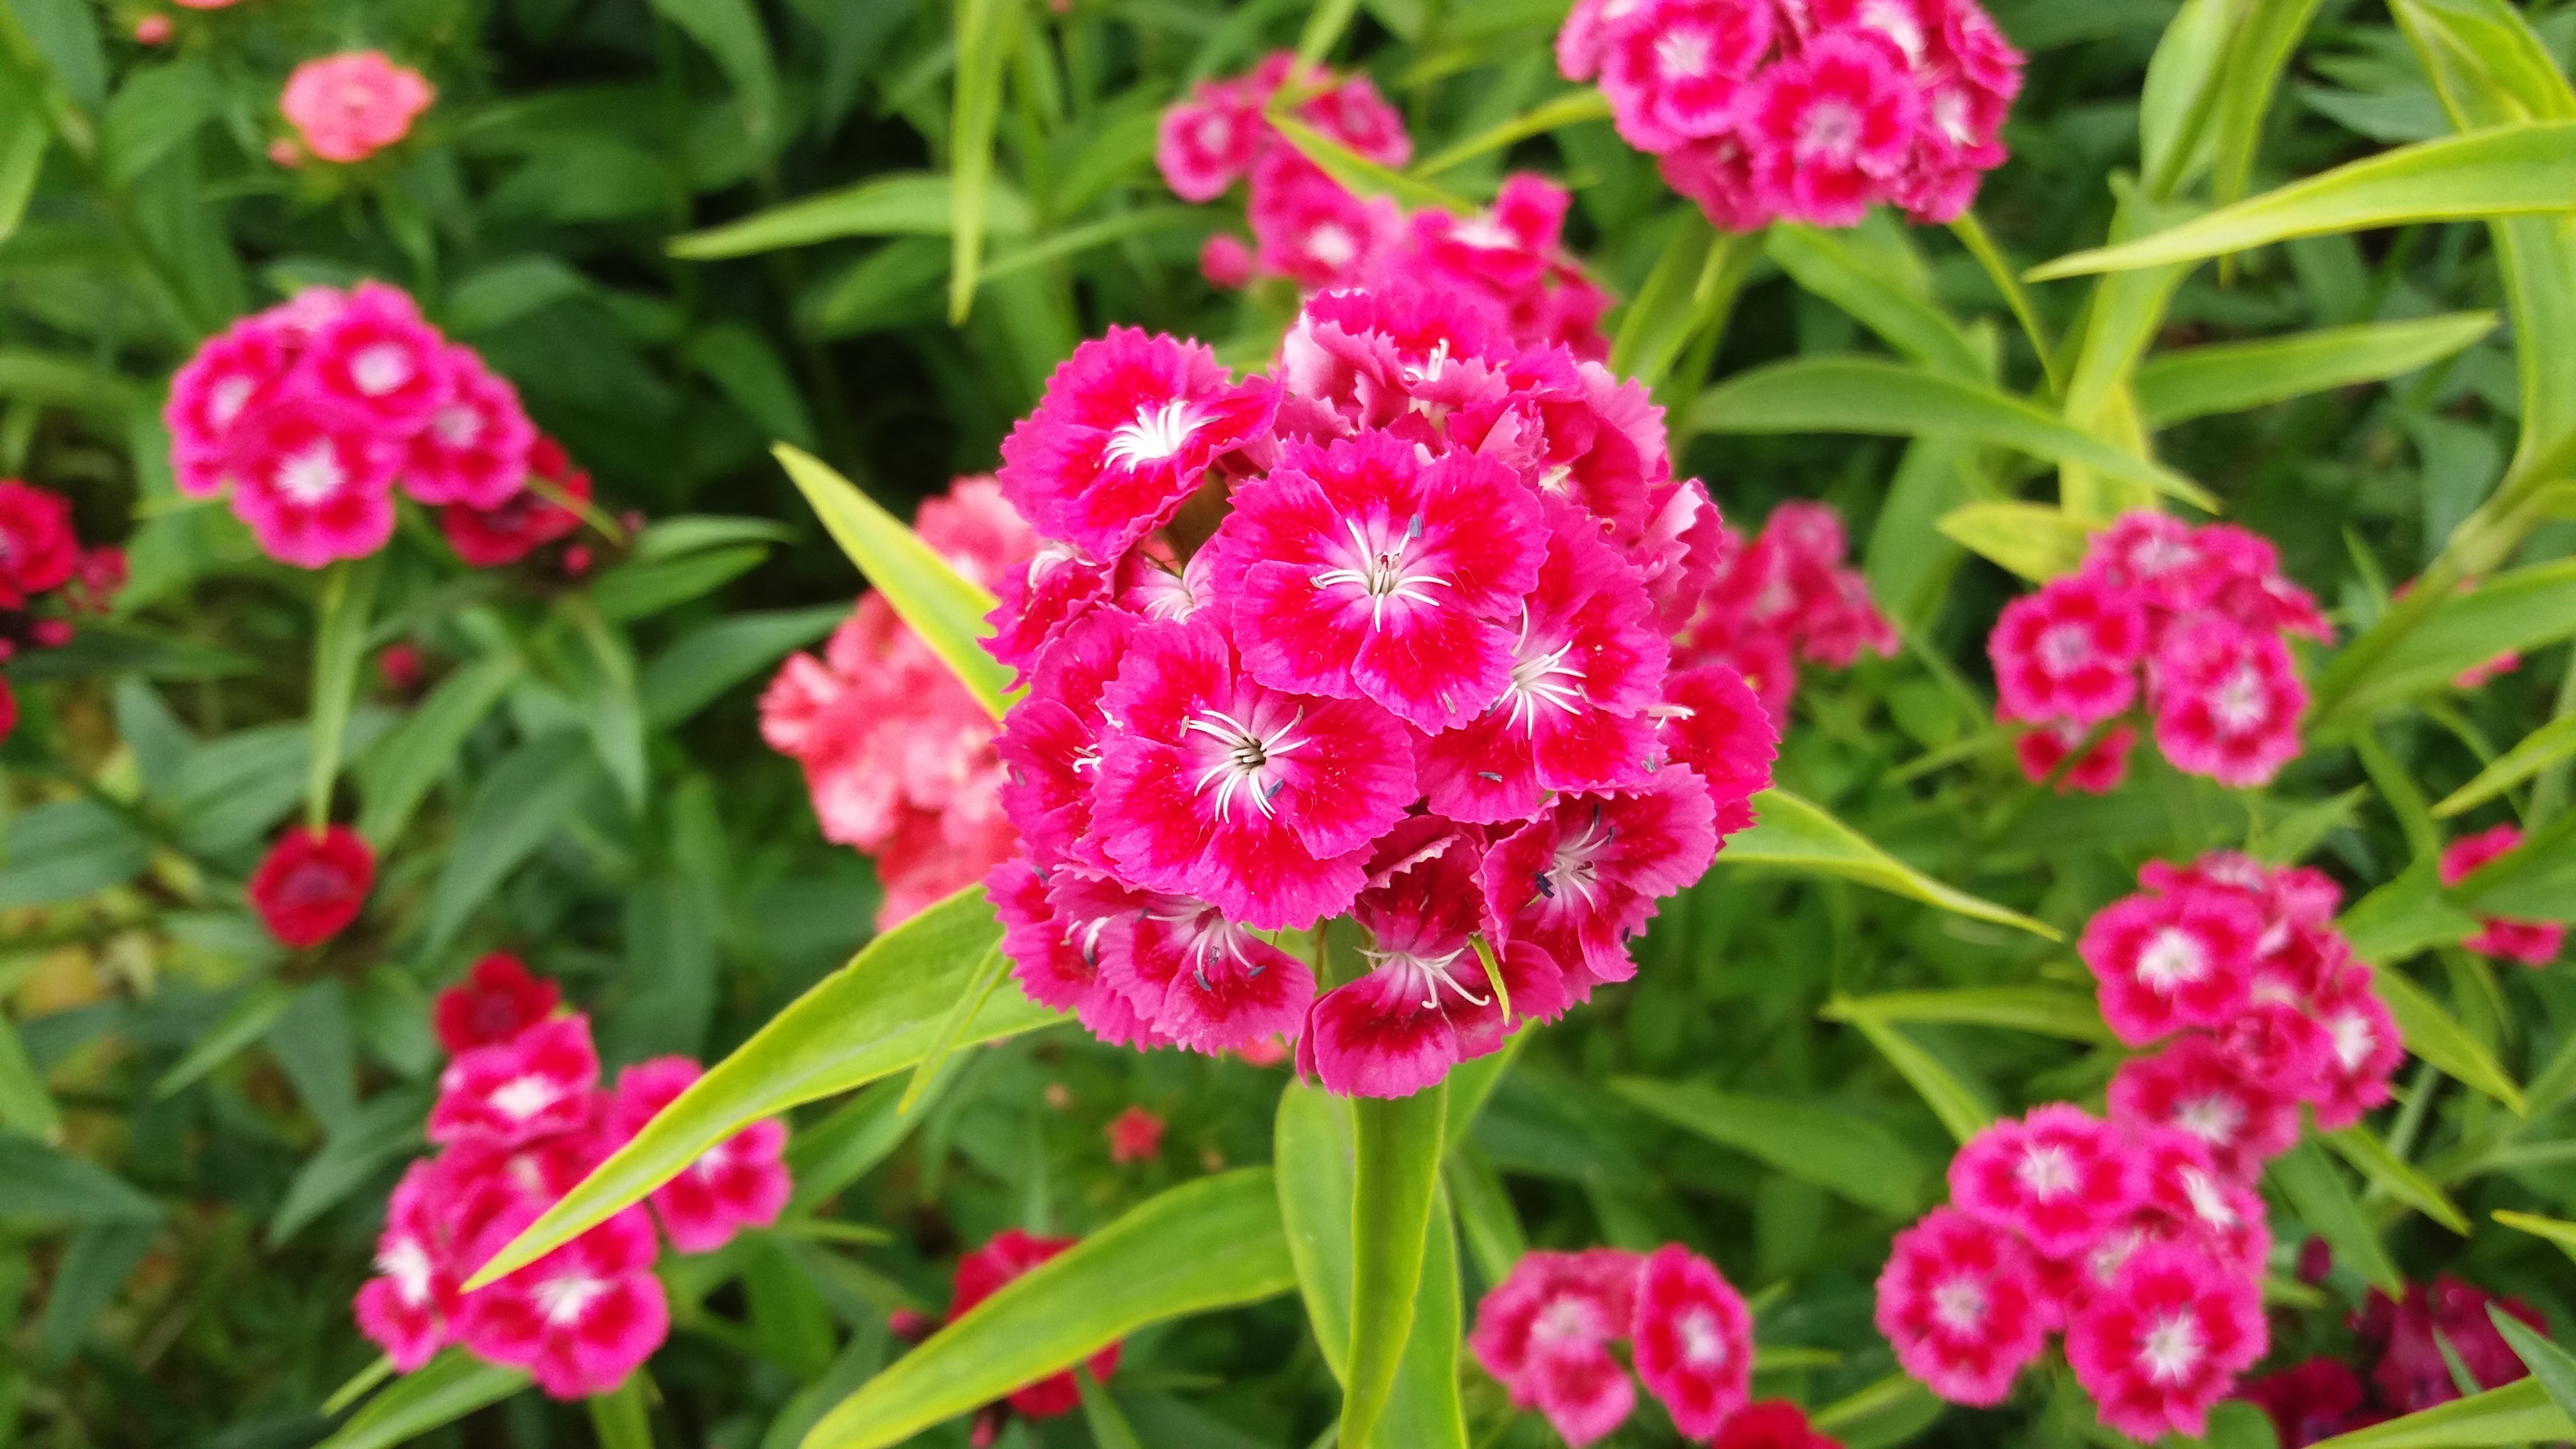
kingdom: Plantae
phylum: Tracheophyta
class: Magnoliopsida
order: Caryophyllales
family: Caryophyllaceae
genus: Dianthus
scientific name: Dianthus barbatus
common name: Sweet-william
